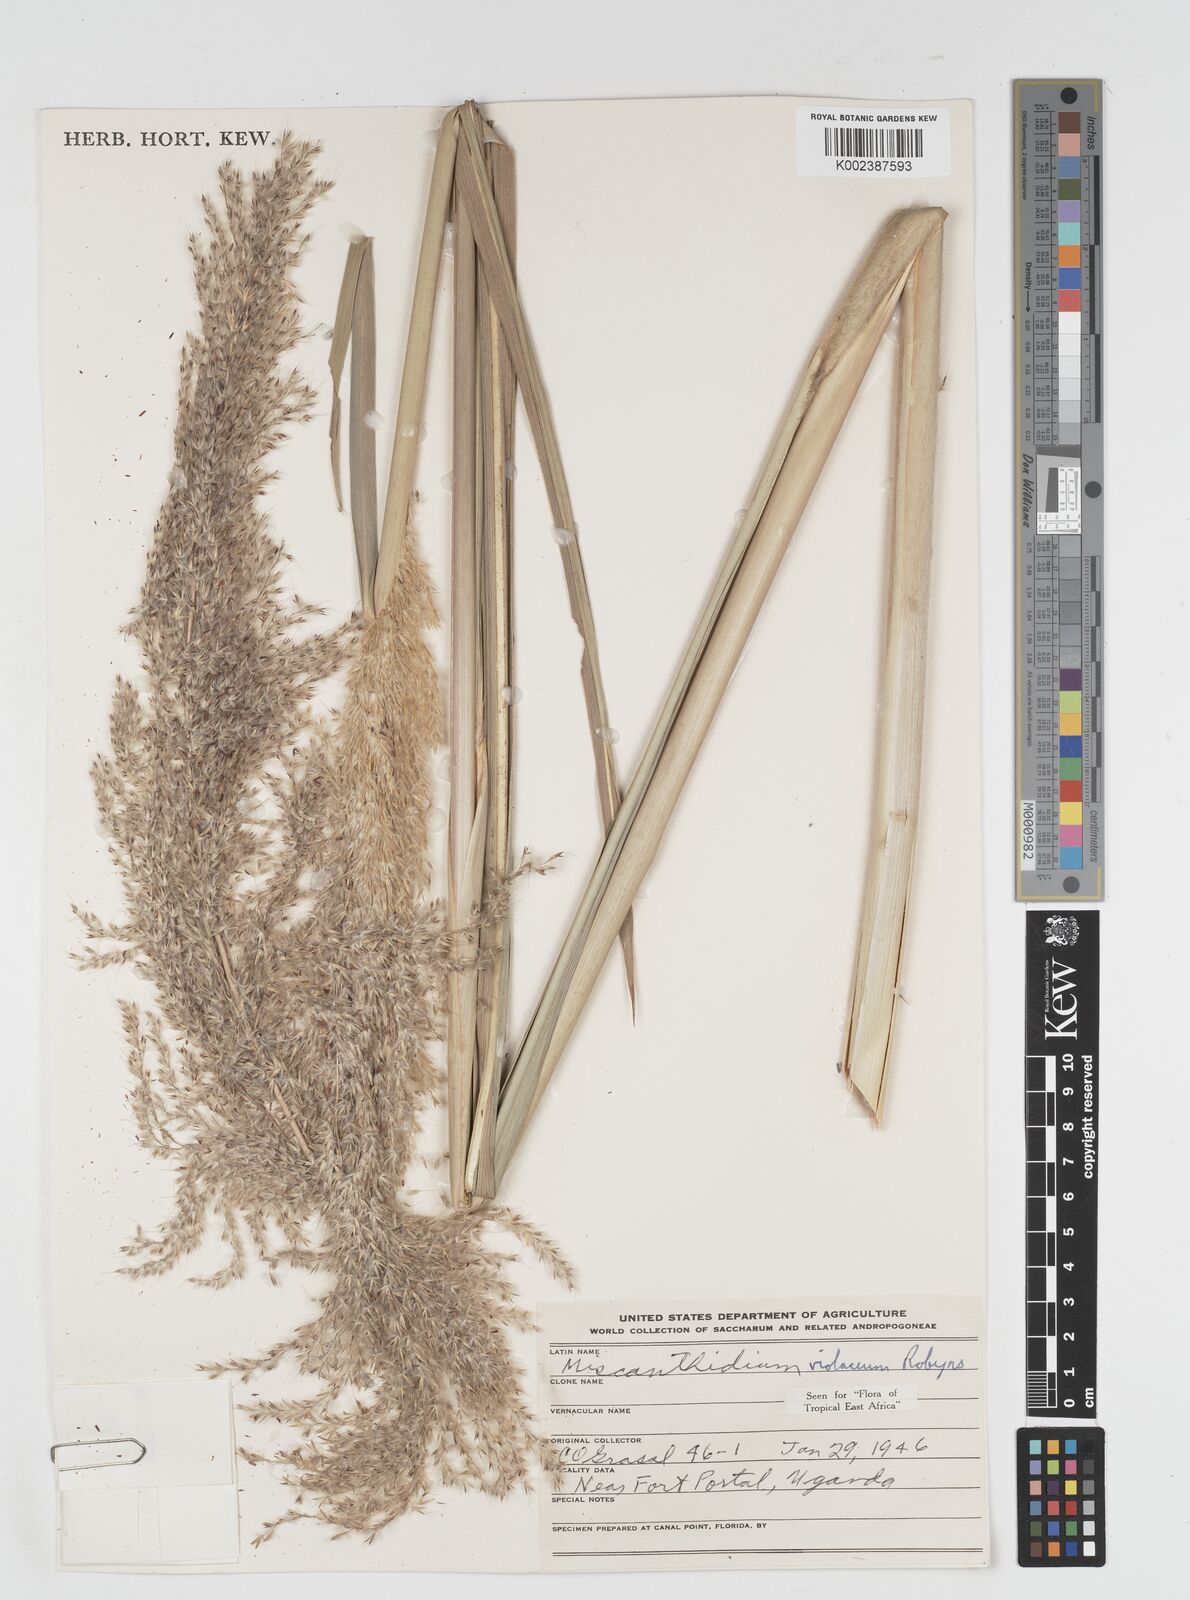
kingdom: Plantae
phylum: Tracheophyta
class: Liliopsida
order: Poales
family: Poaceae
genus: Miscanthidium
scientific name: Miscanthidium violaceum
